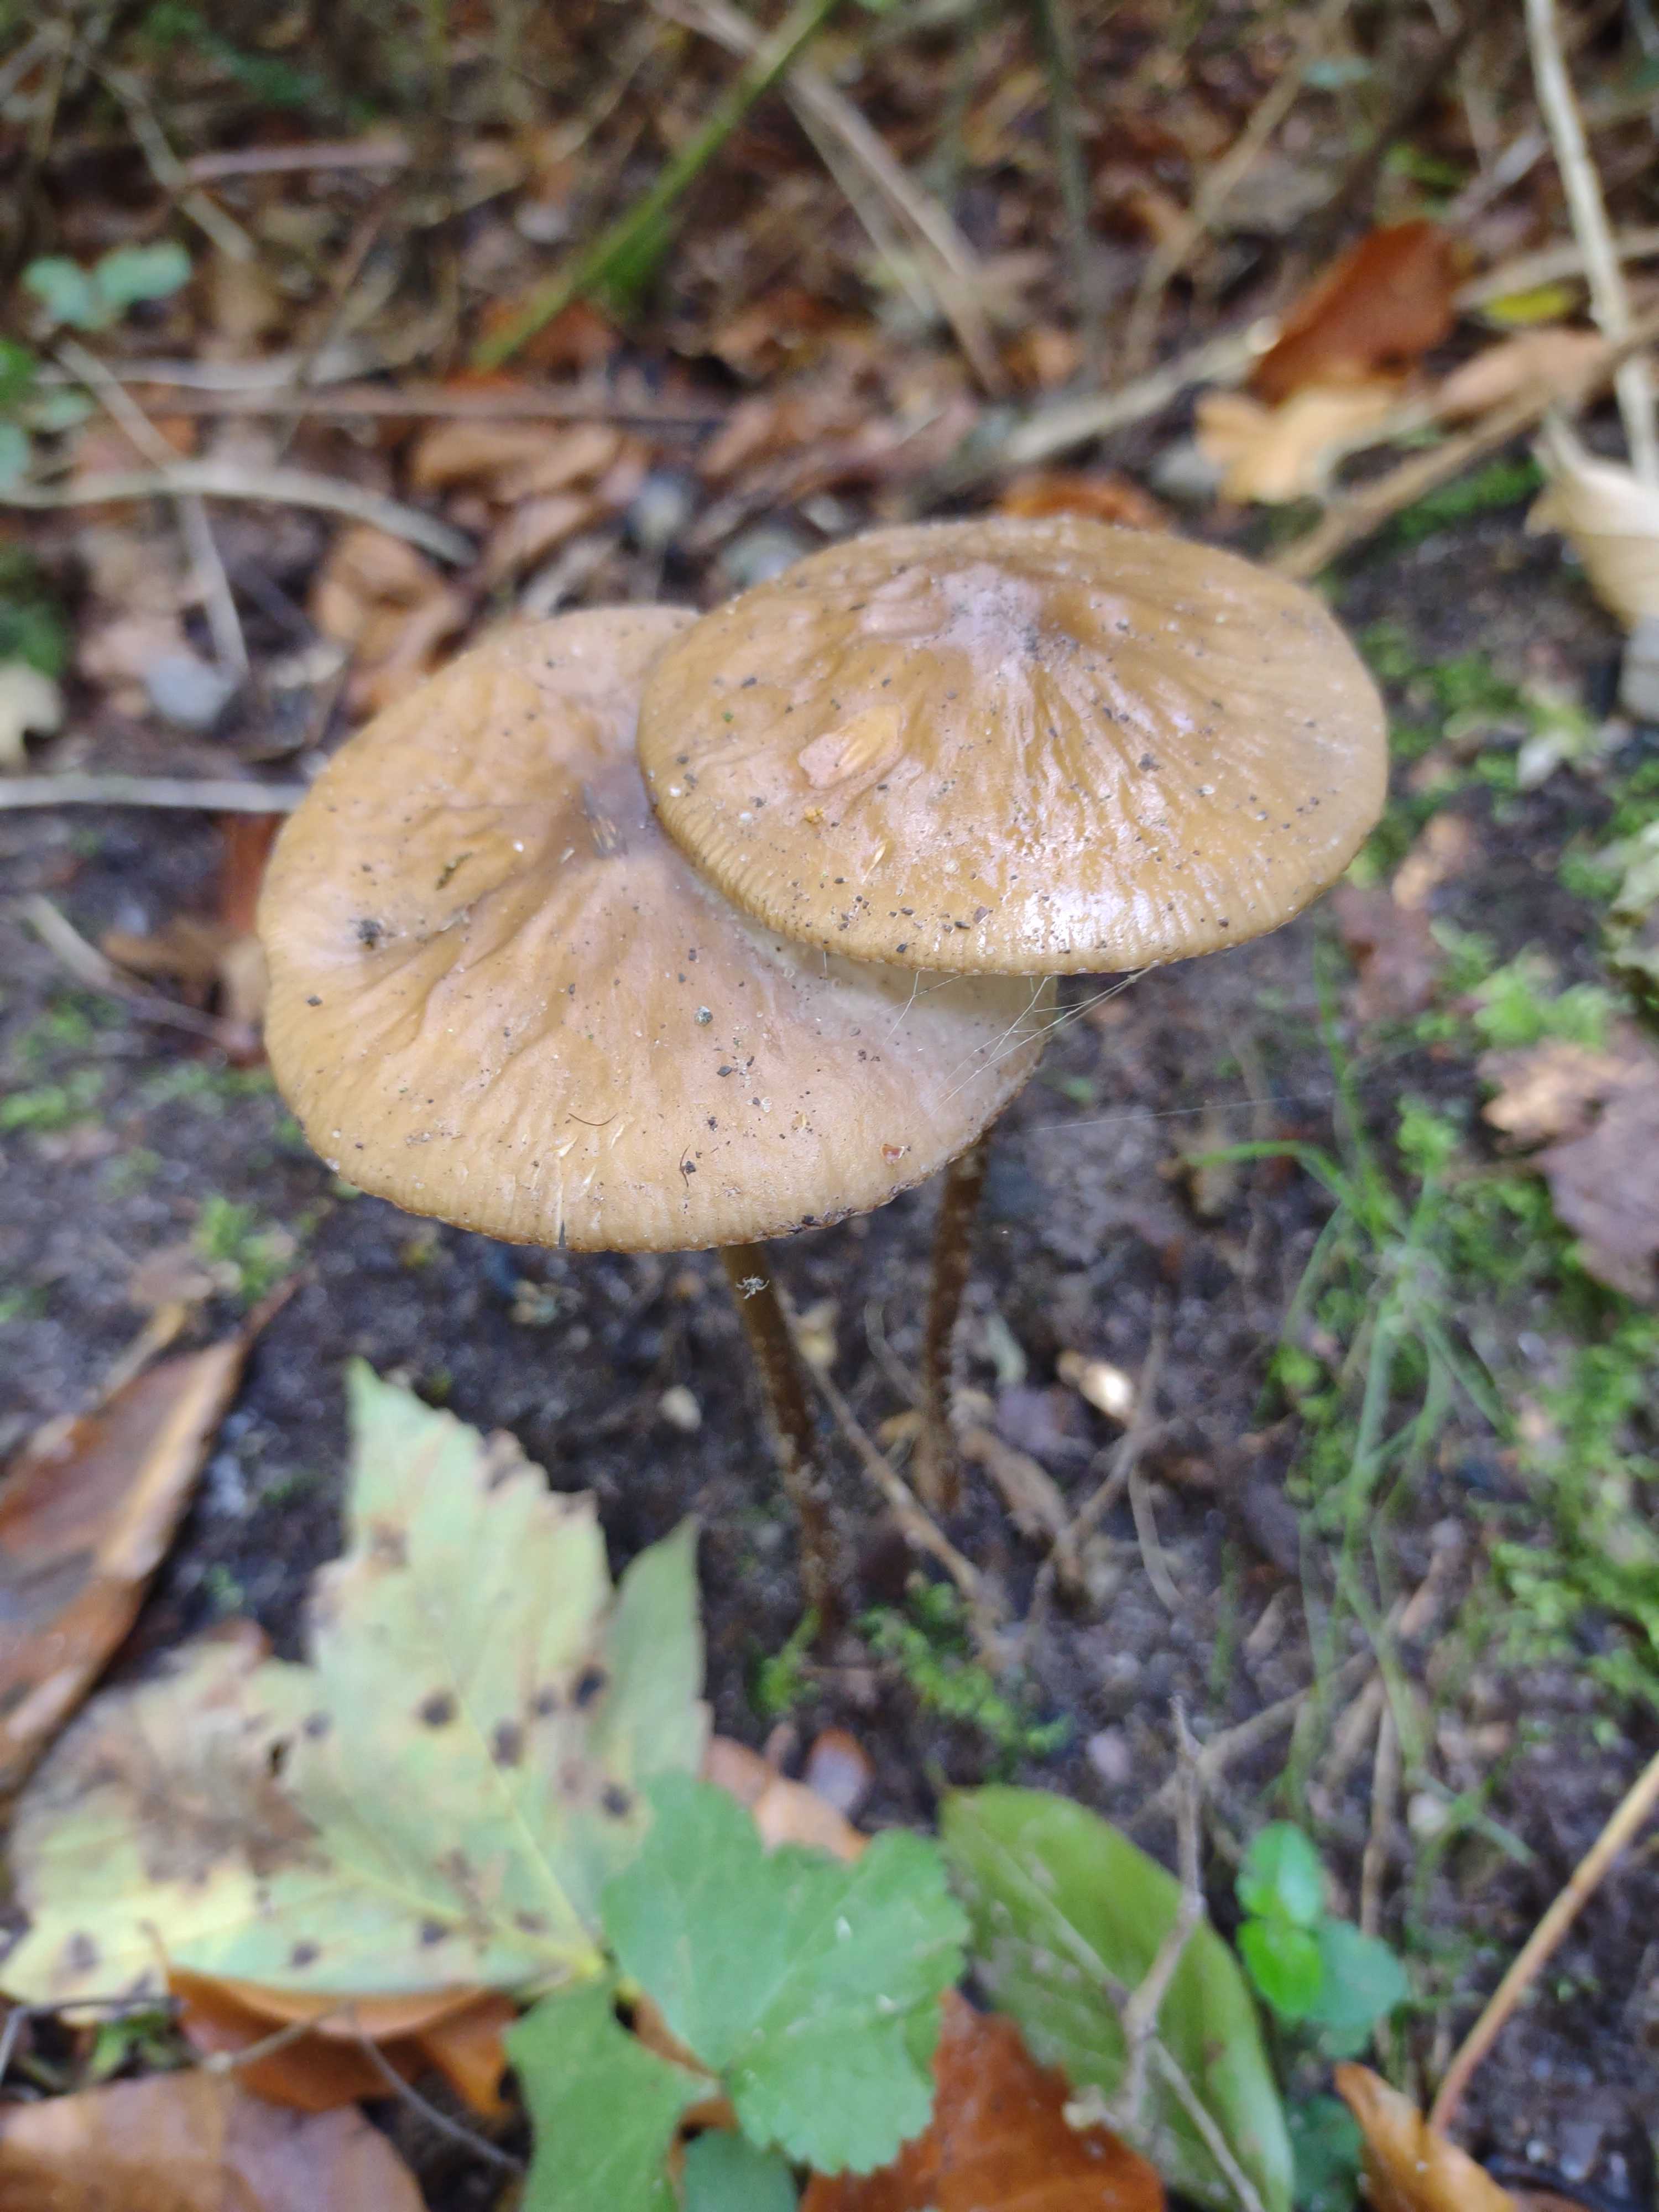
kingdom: Fungi
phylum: Basidiomycota
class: Agaricomycetes
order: Agaricales
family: Physalacriaceae
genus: Hymenopellis
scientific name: Hymenopellis radicata
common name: almindelig pælerodshat
